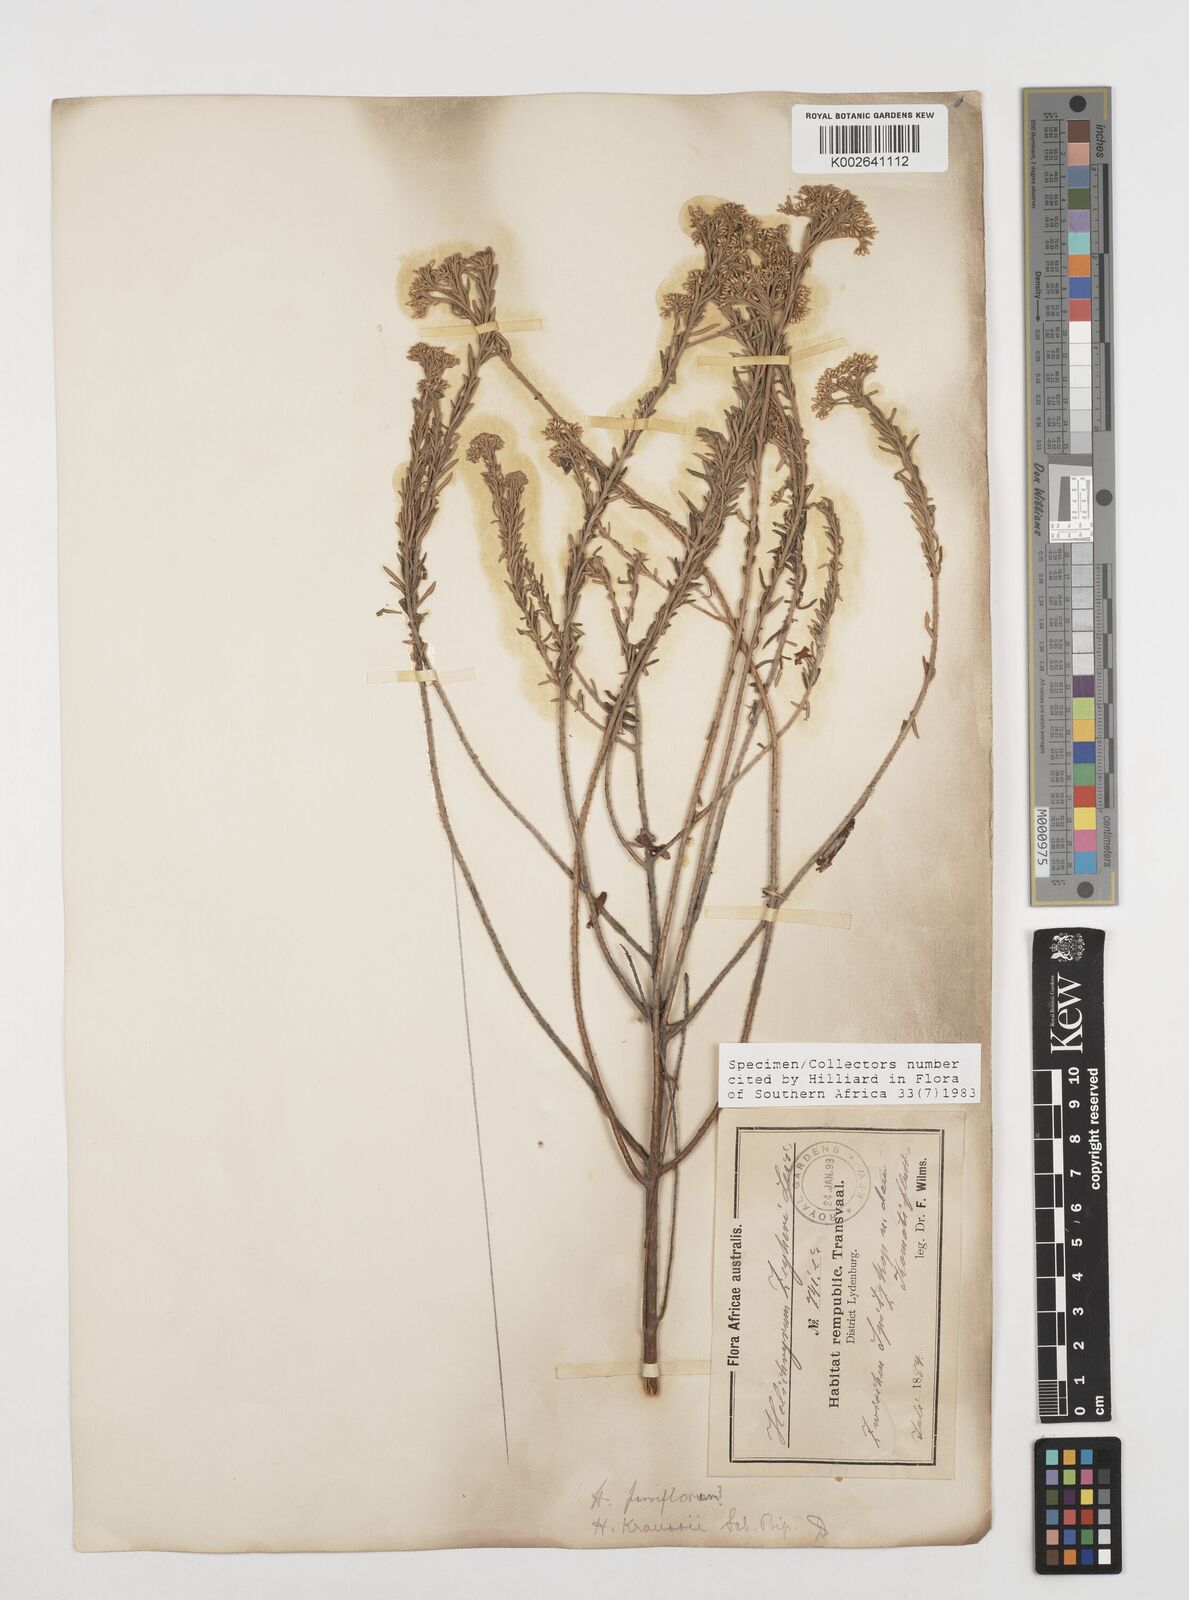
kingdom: Plantae
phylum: Tracheophyta
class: Magnoliopsida
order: Asterales
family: Asteraceae
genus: Helichrysum
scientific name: Helichrysum callicomum
